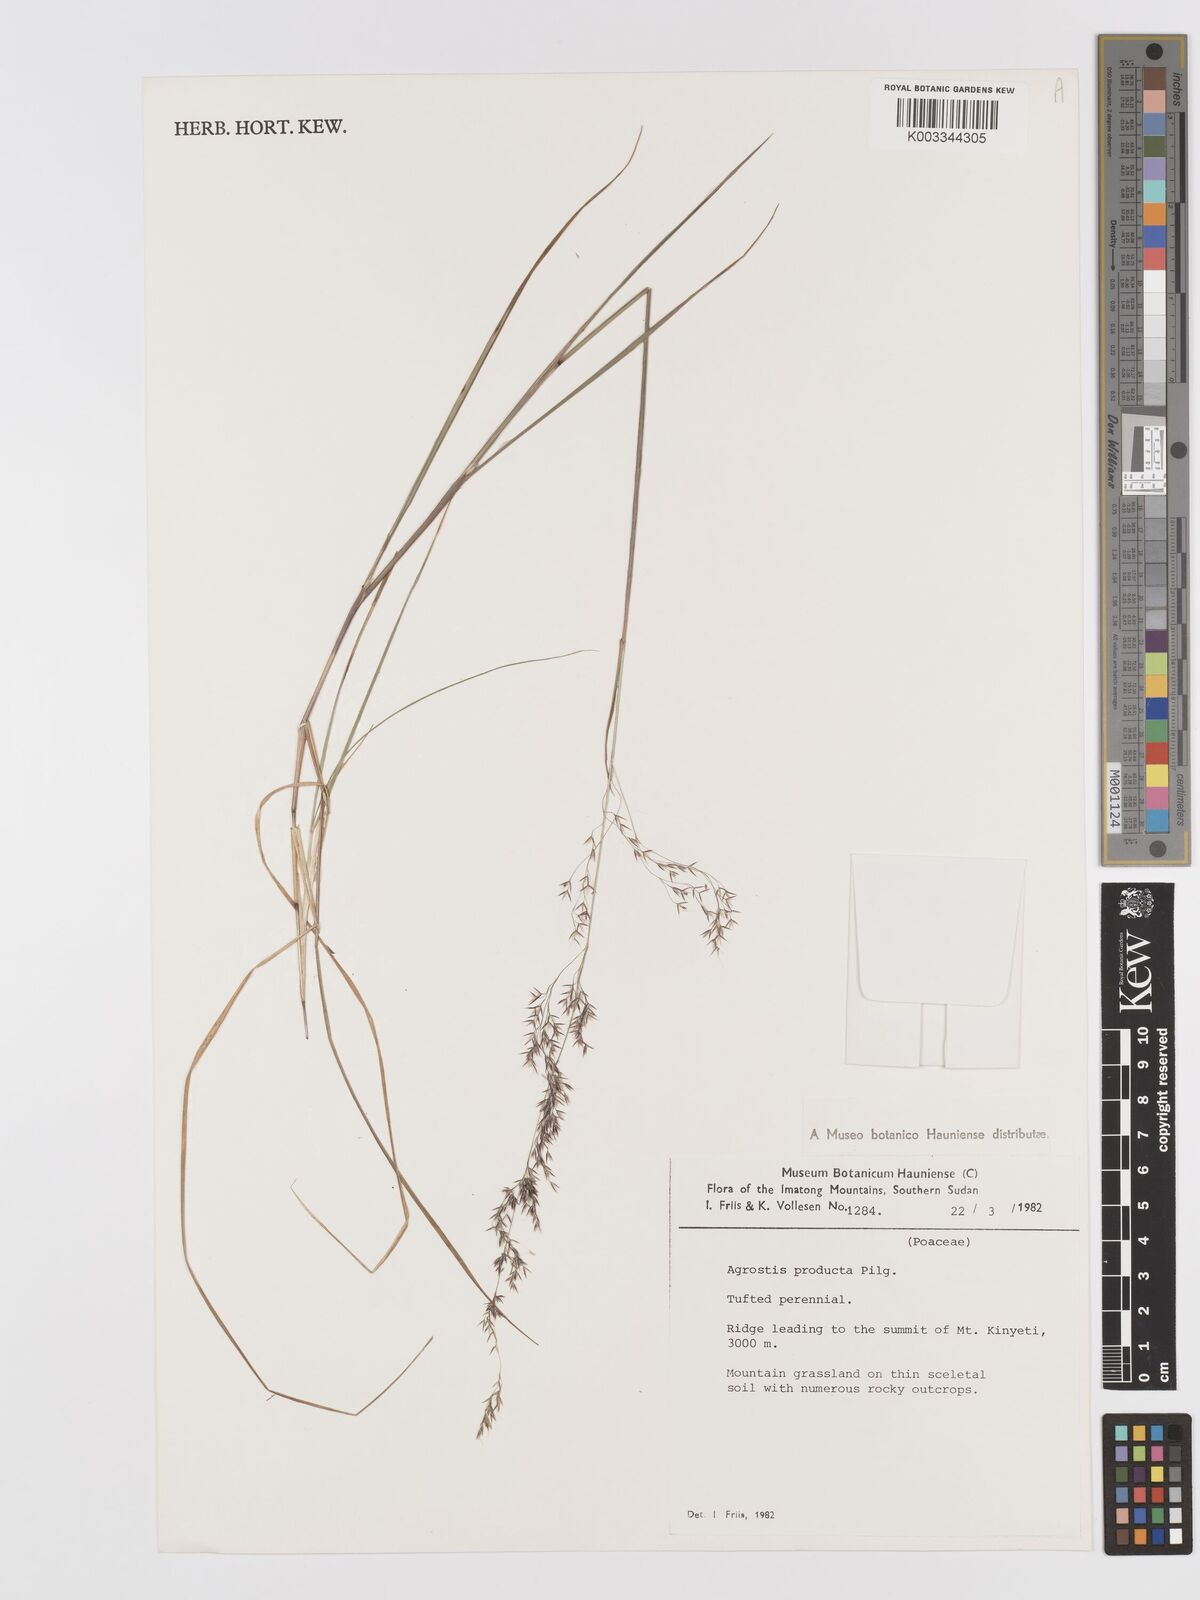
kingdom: Plantae
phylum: Tracheophyta
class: Liliopsida
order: Poales
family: Poaceae
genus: Agrostis
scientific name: Agrostis producta
